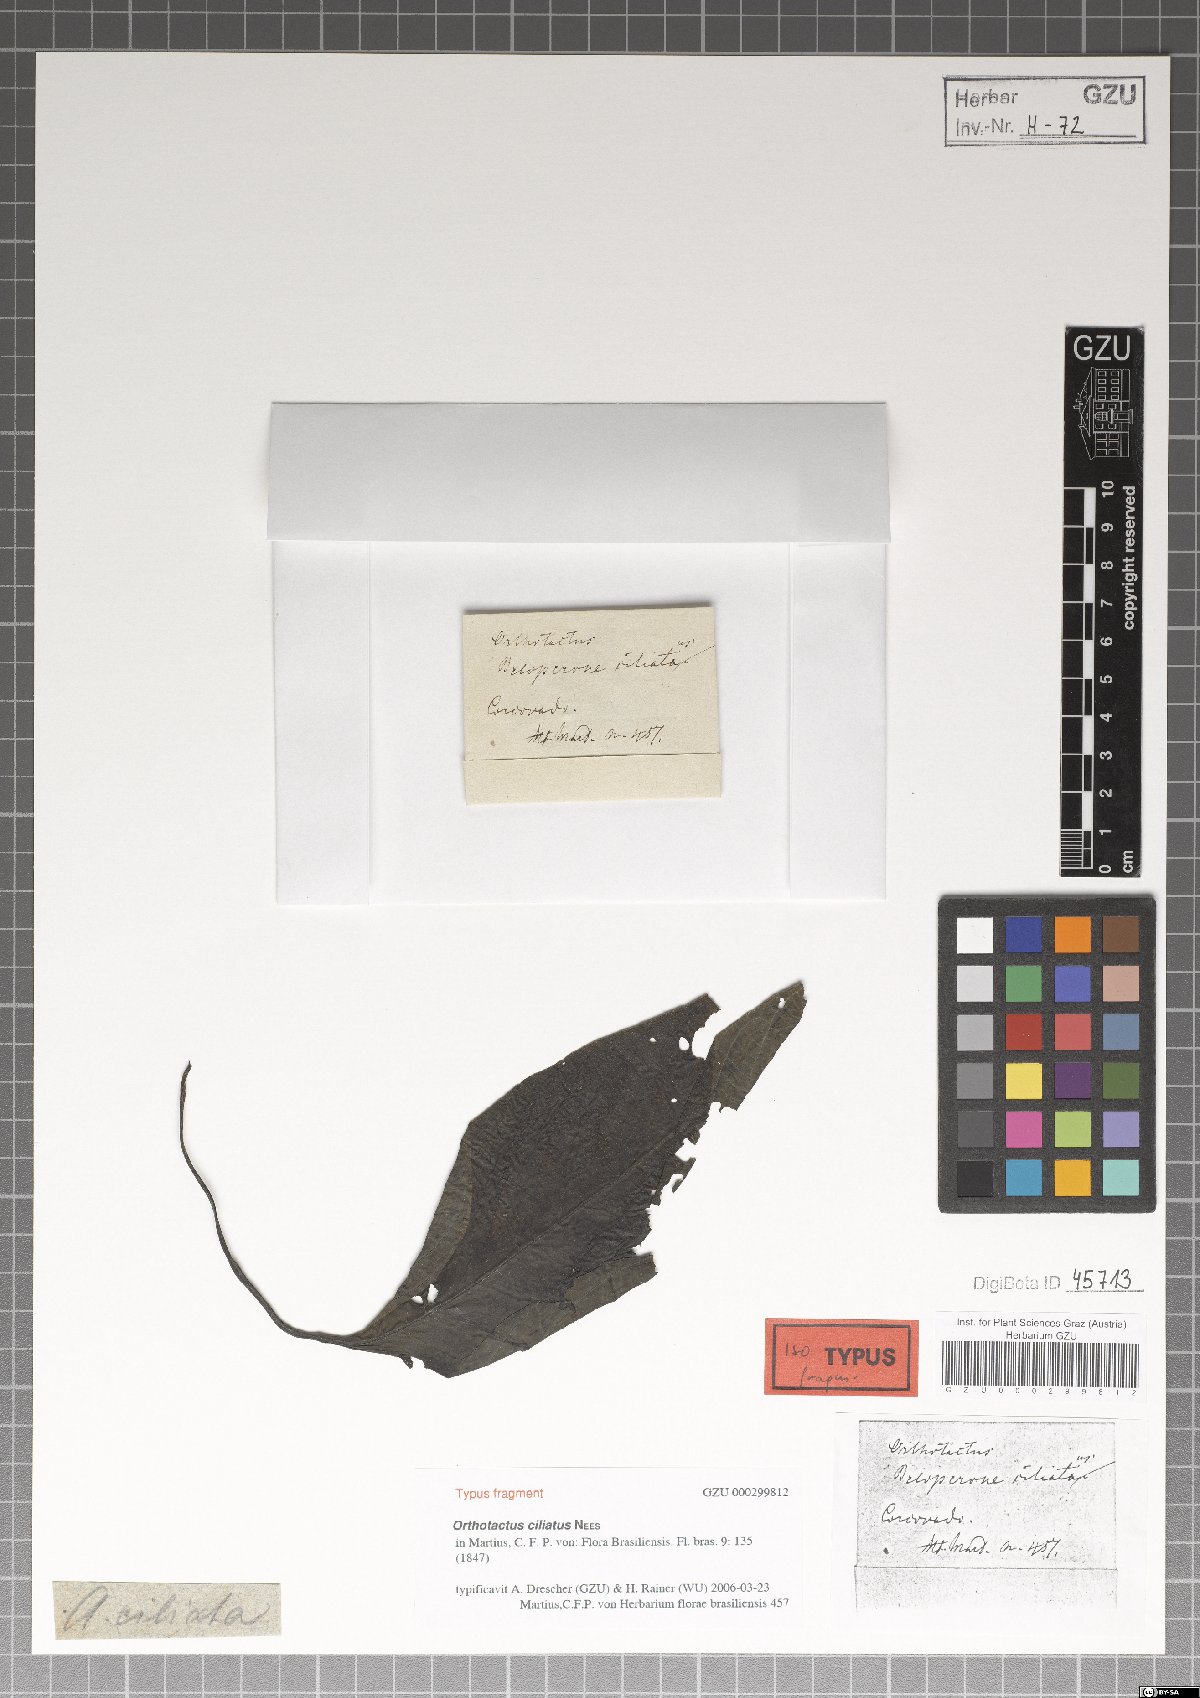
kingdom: Plantae
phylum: Tracheophyta
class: Magnoliopsida
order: Lamiales
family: Acanthaceae
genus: Justicia
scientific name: Justicia carnea
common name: Brazilian-plume
